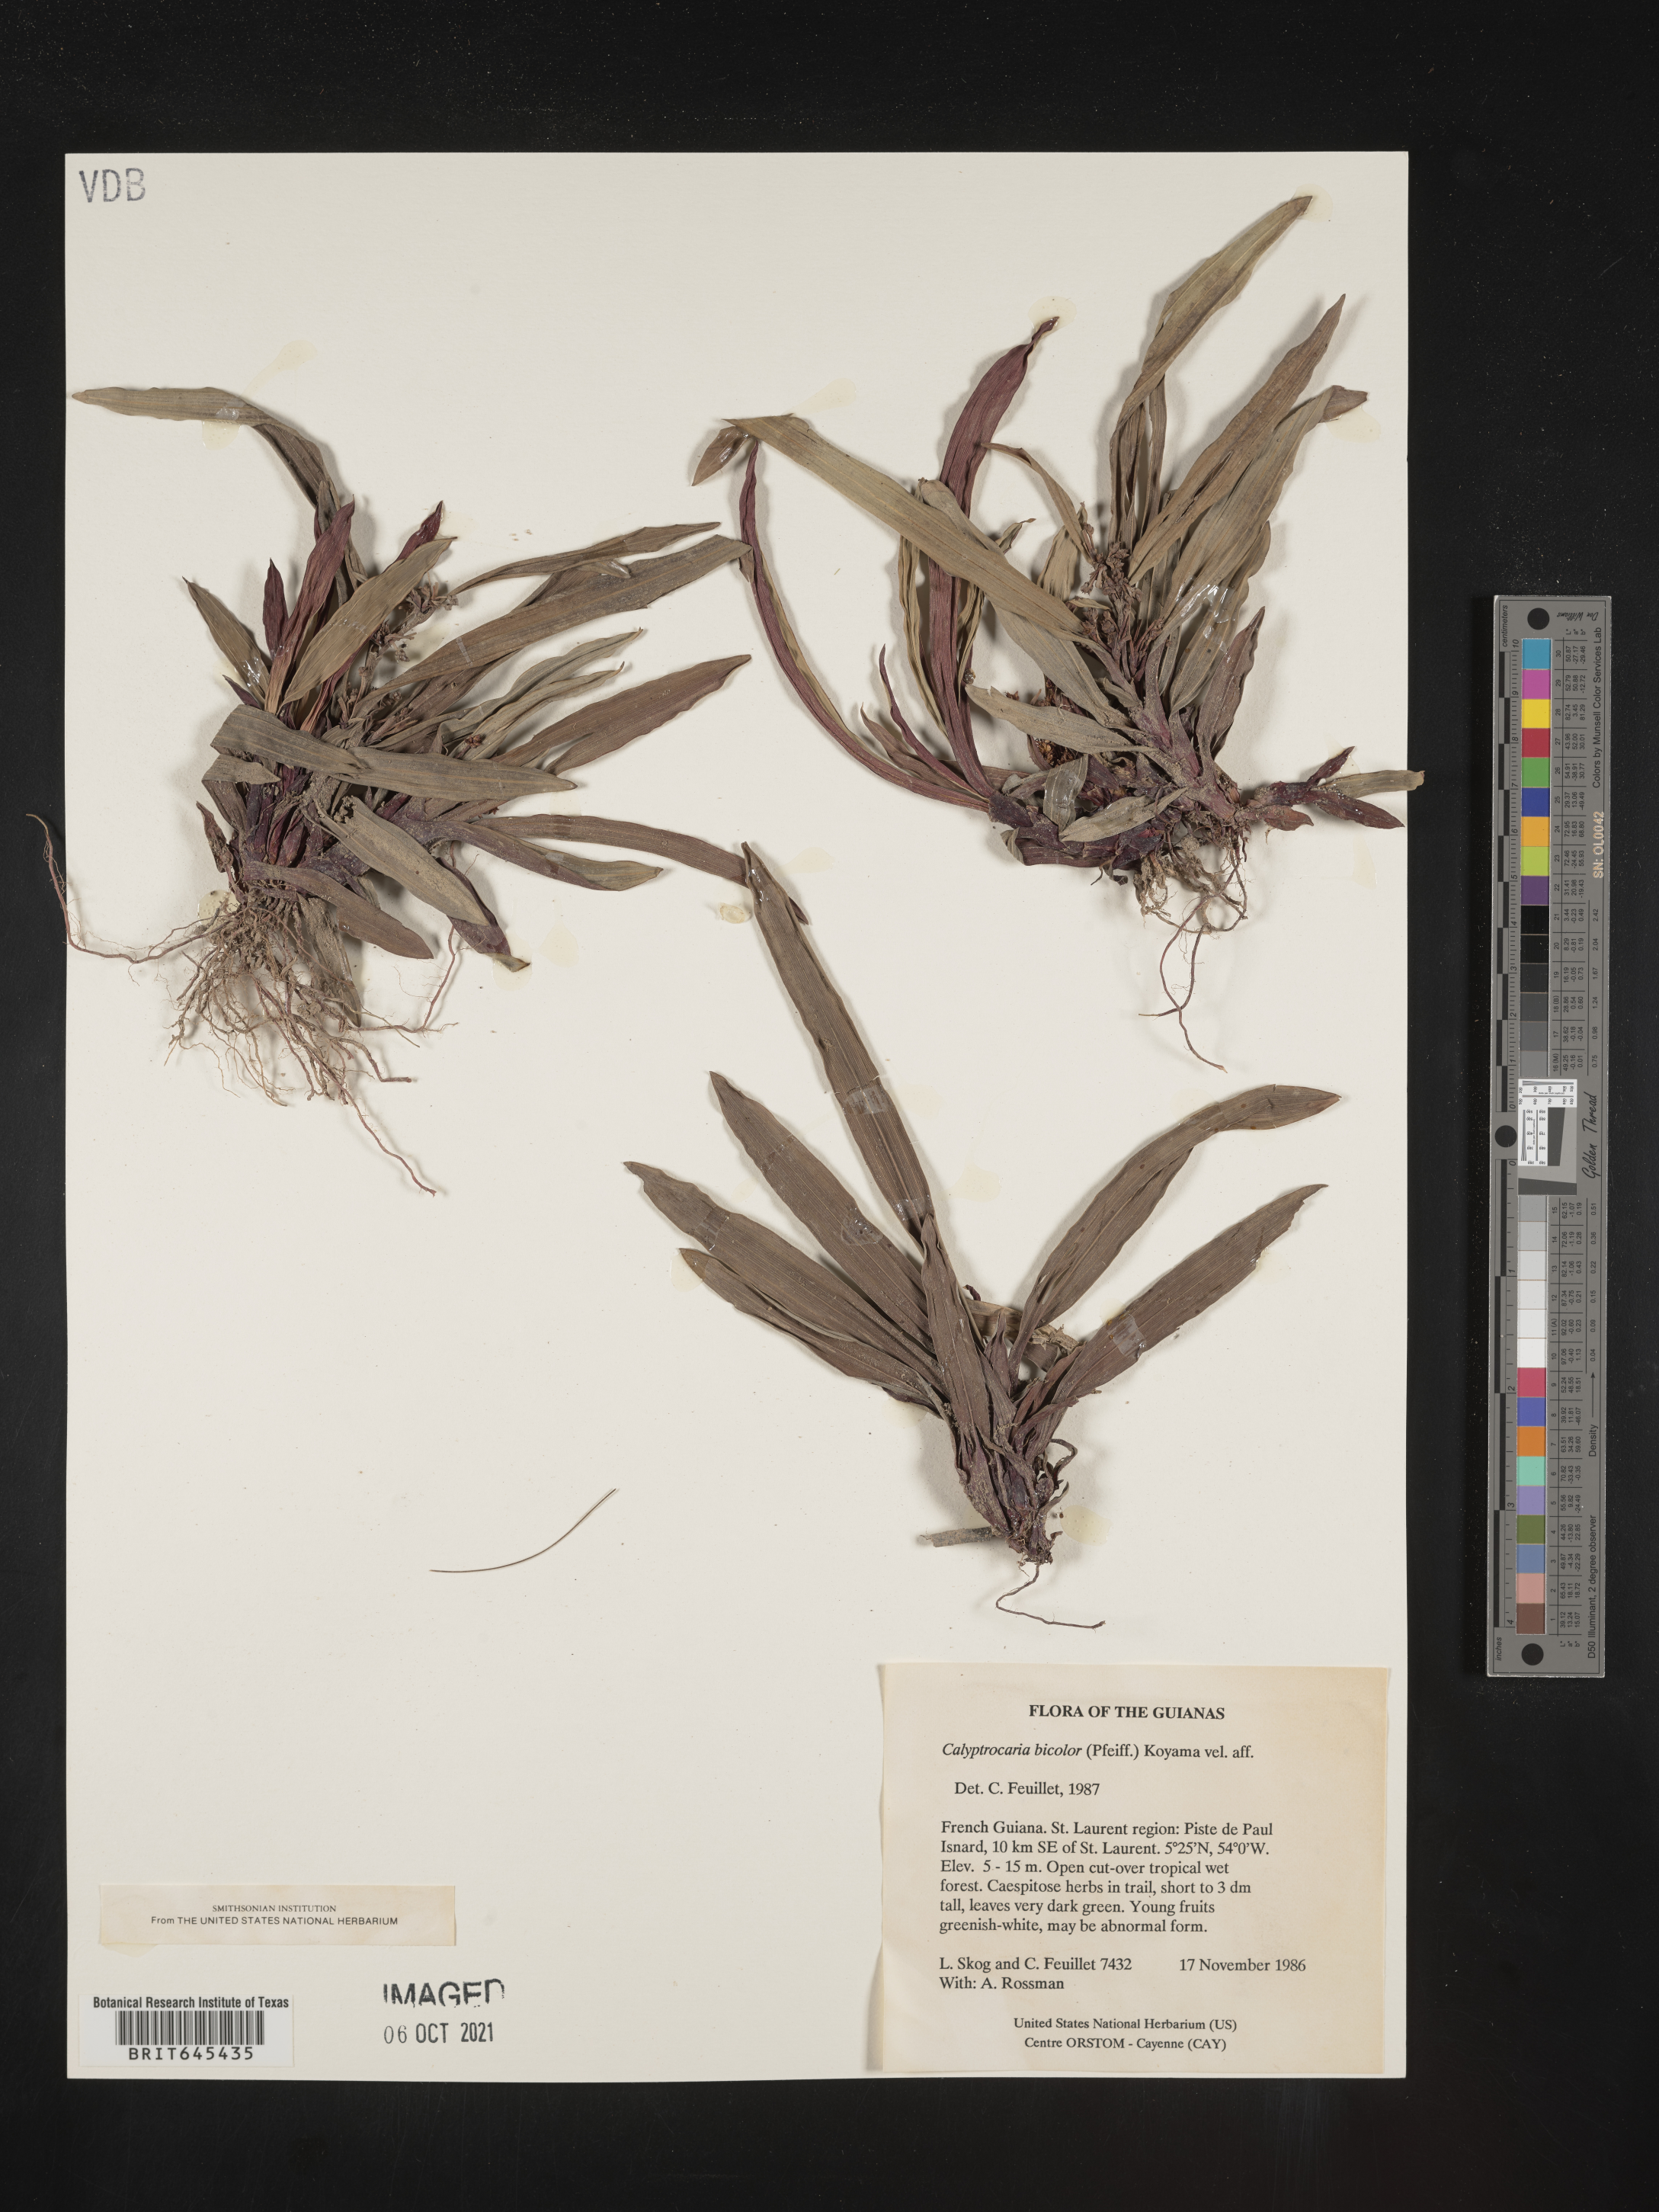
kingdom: Plantae
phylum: Tracheophyta
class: Liliopsida
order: Poales
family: Cyperaceae
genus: Calyptrocarya
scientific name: Calyptrocarya bicolor
